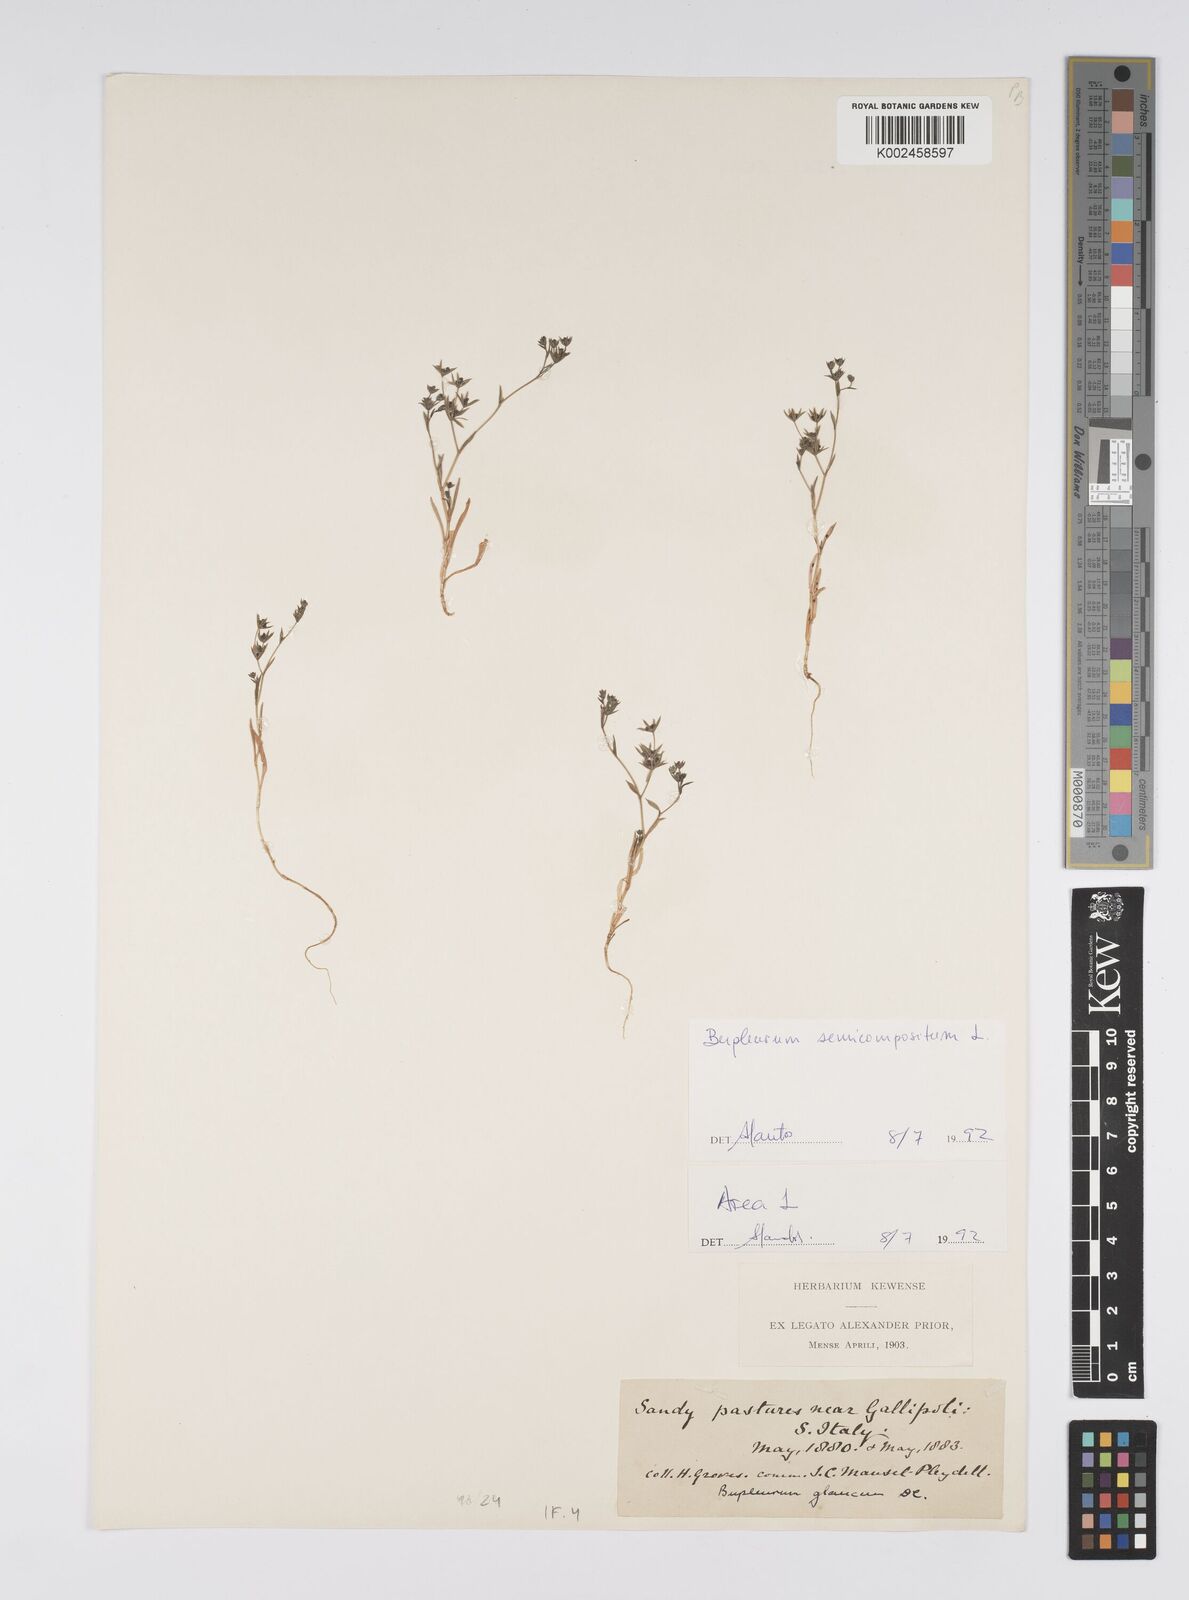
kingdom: Plantae
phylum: Tracheophyta
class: Magnoliopsida
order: Apiales
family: Apiaceae
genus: Bupleurum
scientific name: Bupleurum semicompositum
